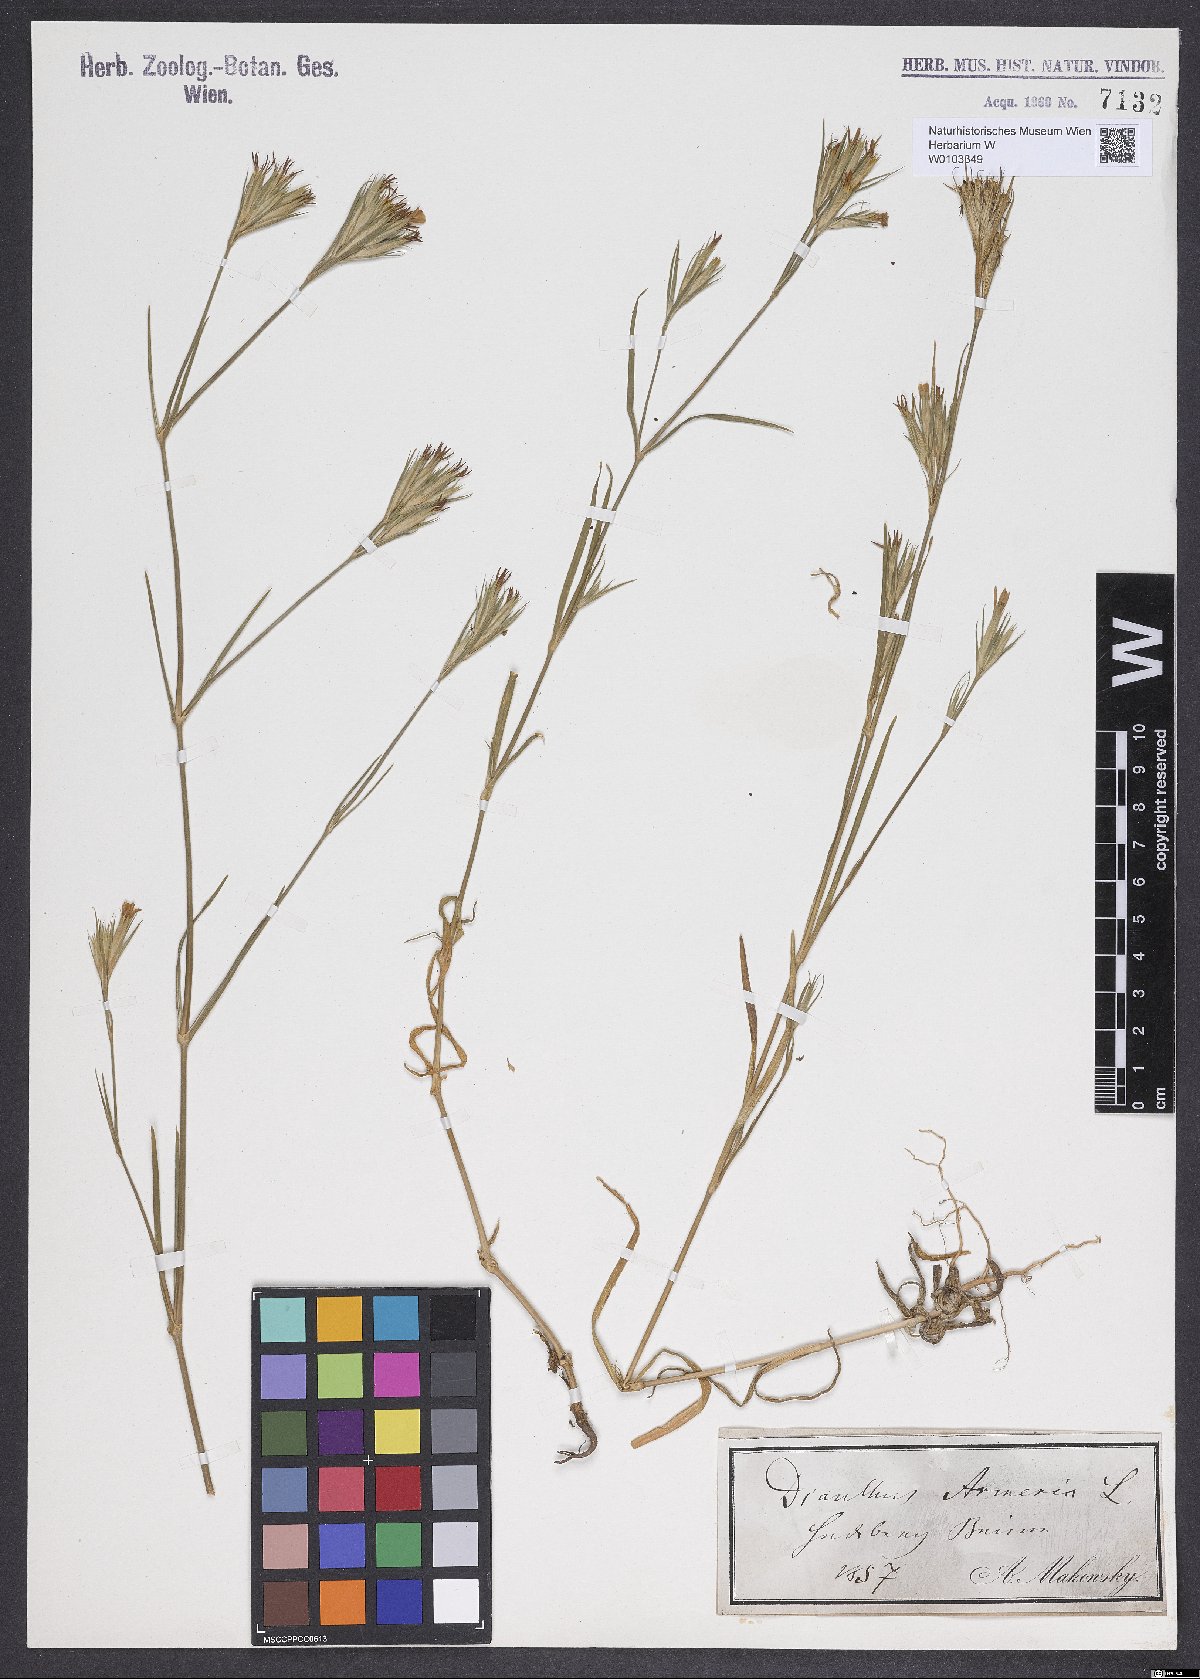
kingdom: Plantae
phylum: Tracheophyta
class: Magnoliopsida
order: Caryophyllales
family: Caryophyllaceae
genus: Dianthus
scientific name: Dianthus armeria
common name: Deptford pink
